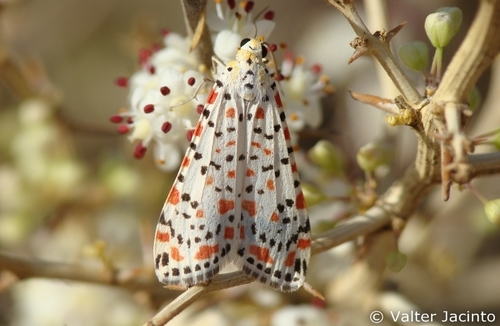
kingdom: Animalia
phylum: Arthropoda
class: Insecta
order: Lepidoptera
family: Erebidae
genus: Utetheisa
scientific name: Utetheisa pulchella
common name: Crimson speckled
